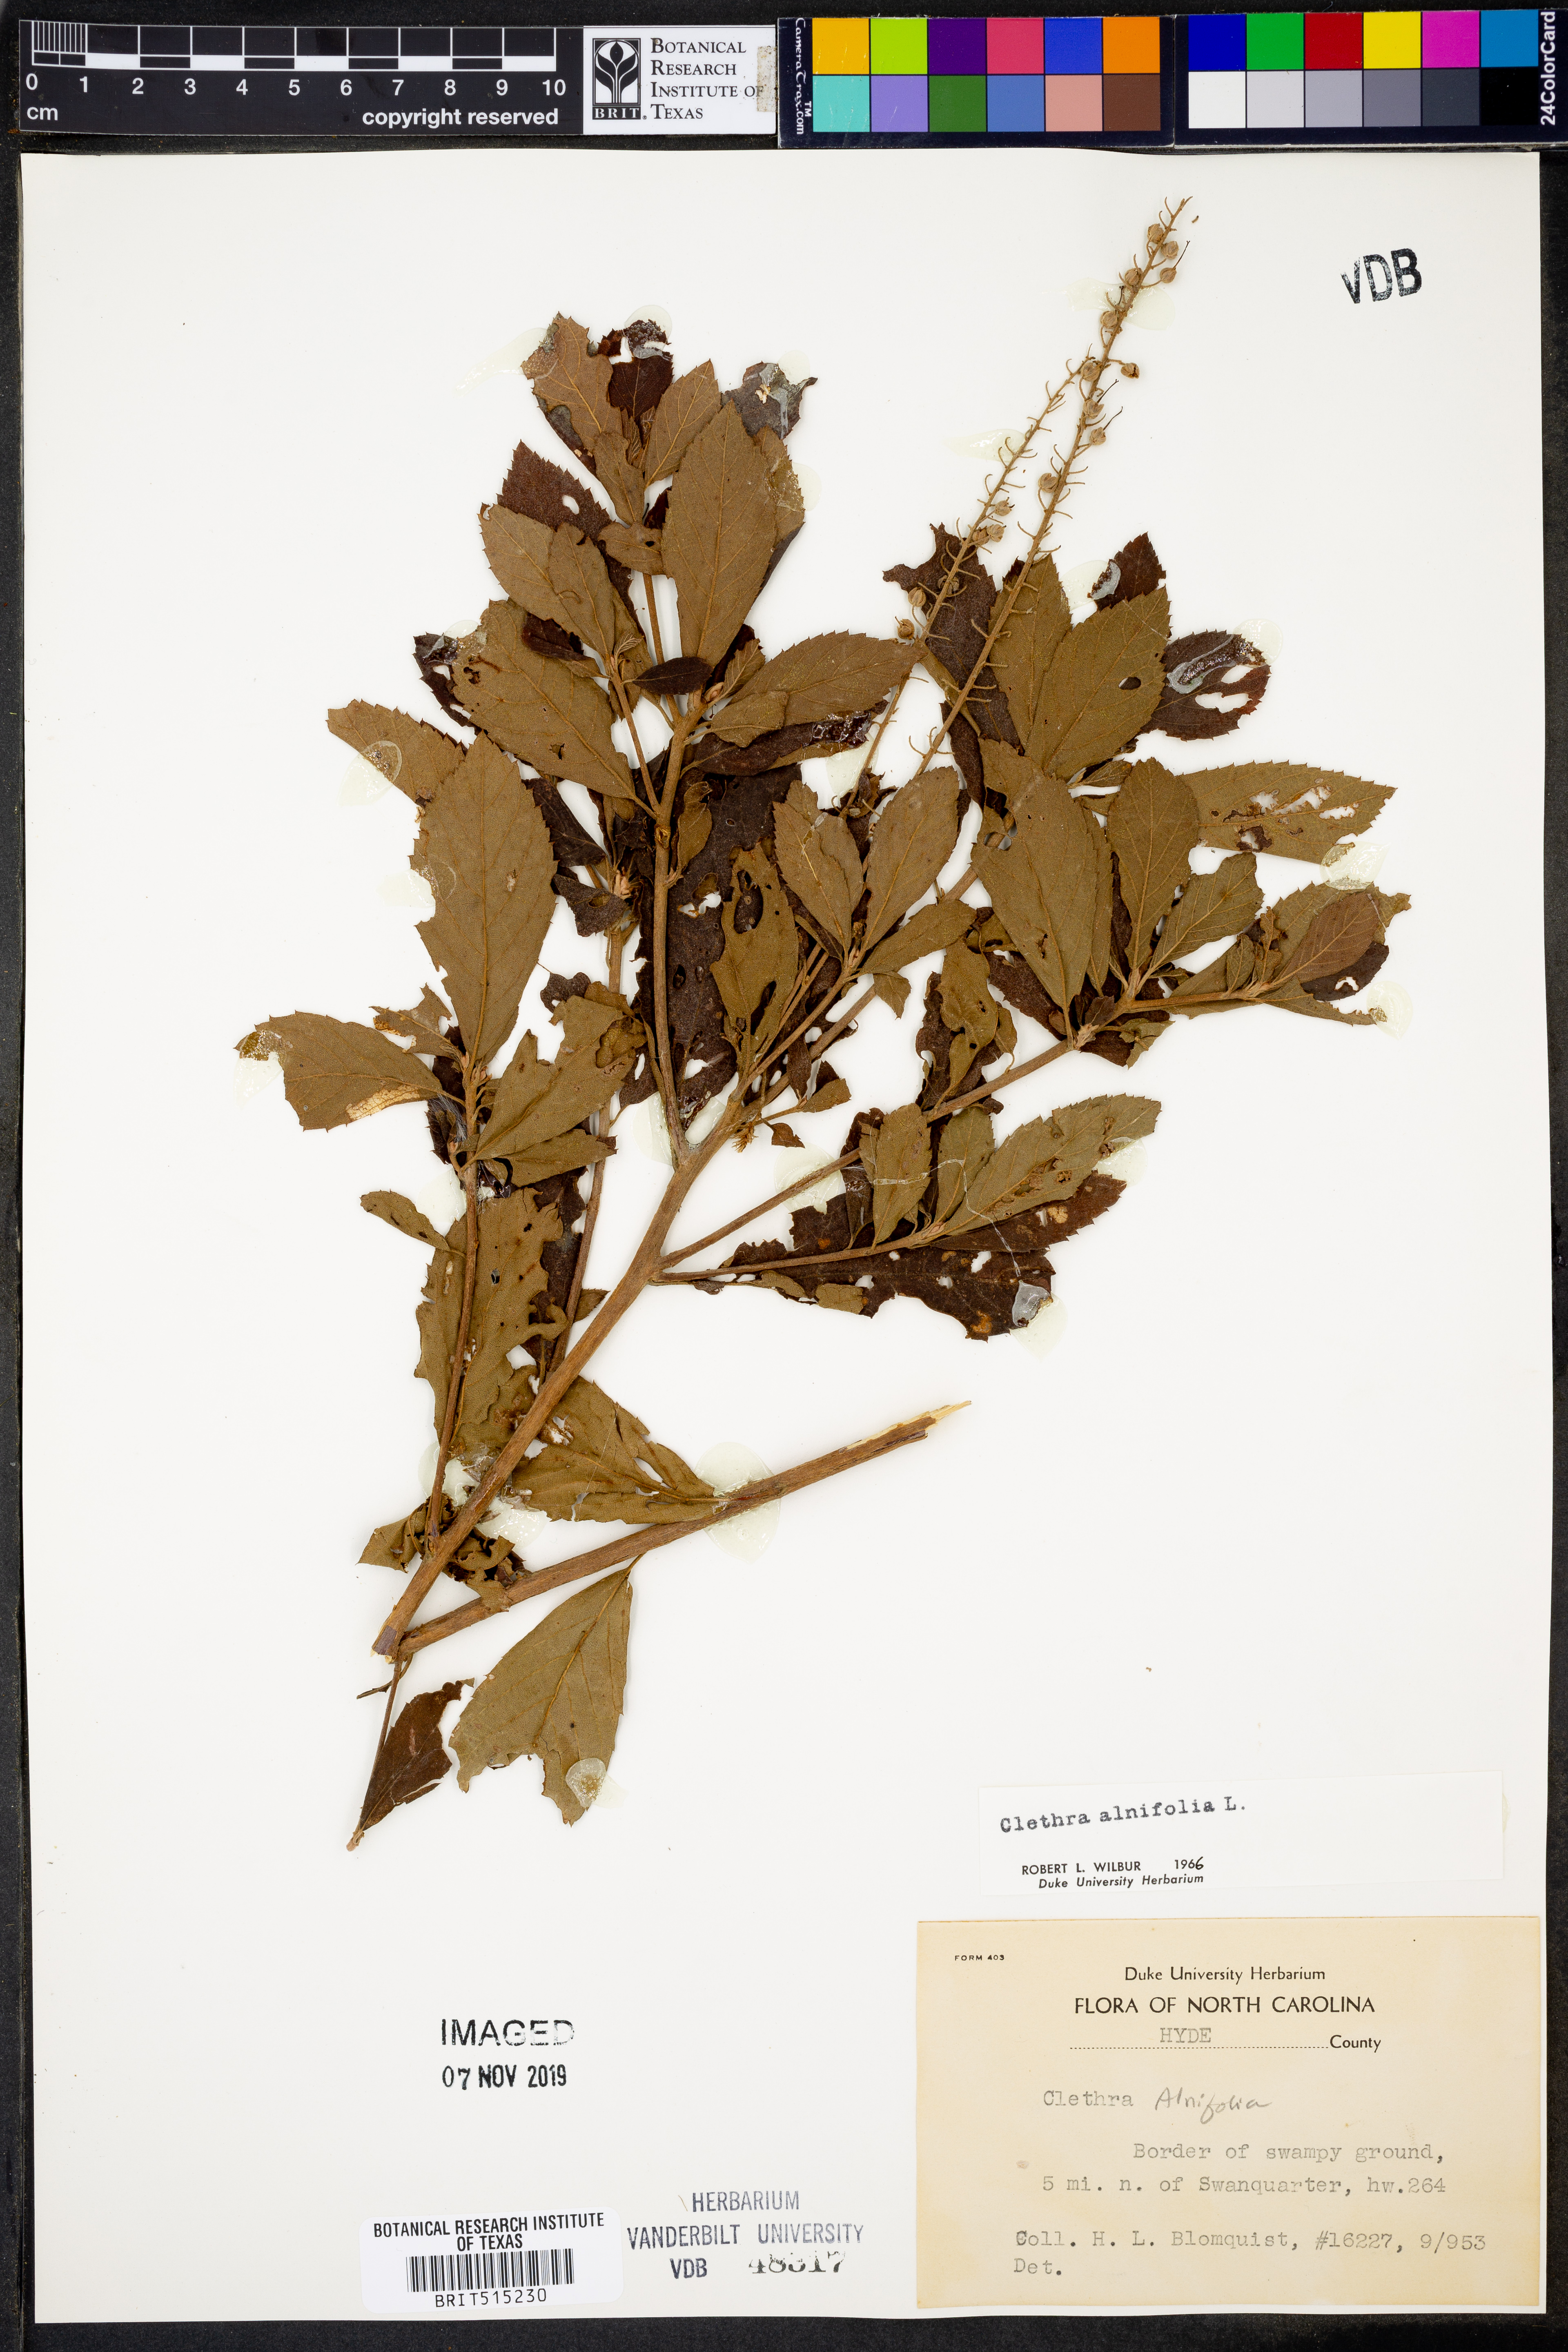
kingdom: Plantae
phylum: Tracheophyta
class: Magnoliopsida
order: Ericales
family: Clethraceae
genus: Clethra
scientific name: Clethra alnifolia
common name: Sweet pepperbush
